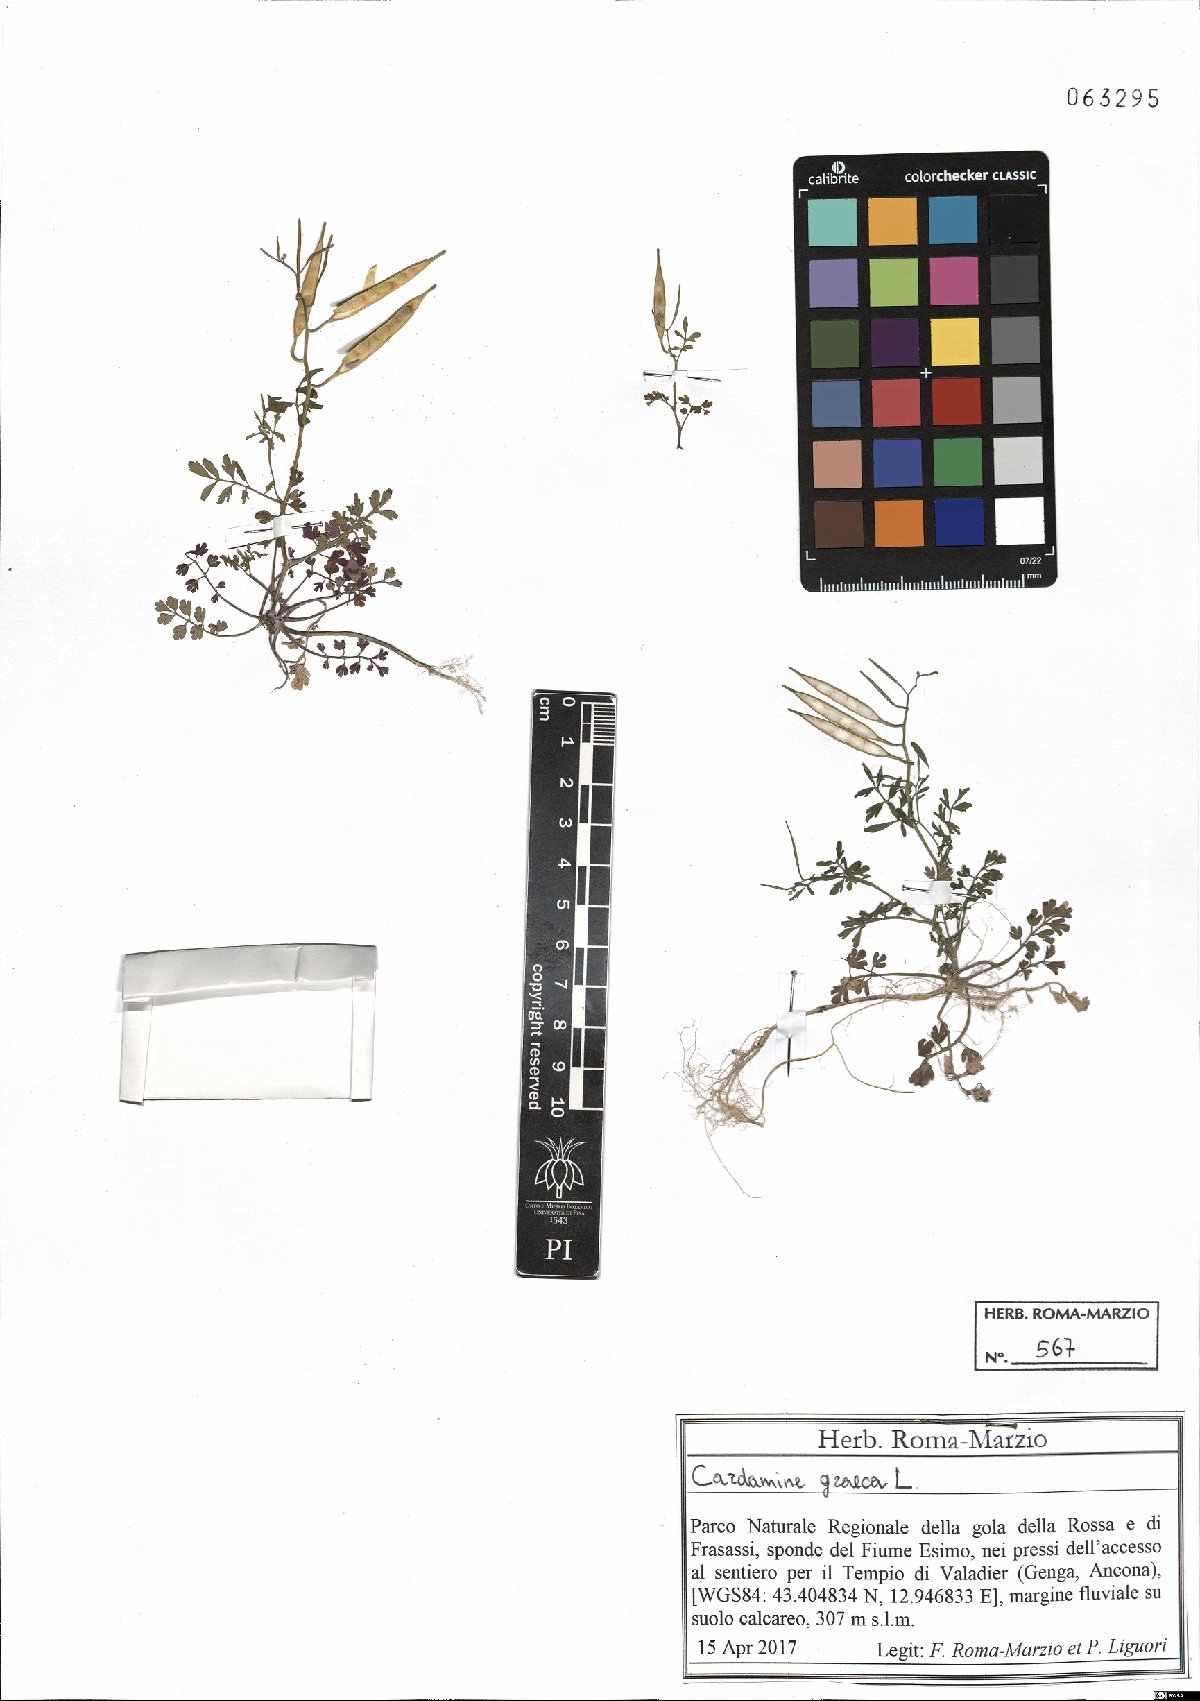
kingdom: Plantae
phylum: Tracheophyta
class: Magnoliopsida
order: Brassicales
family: Brassicaceae
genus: Cardamine
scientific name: Cardamine graeca
